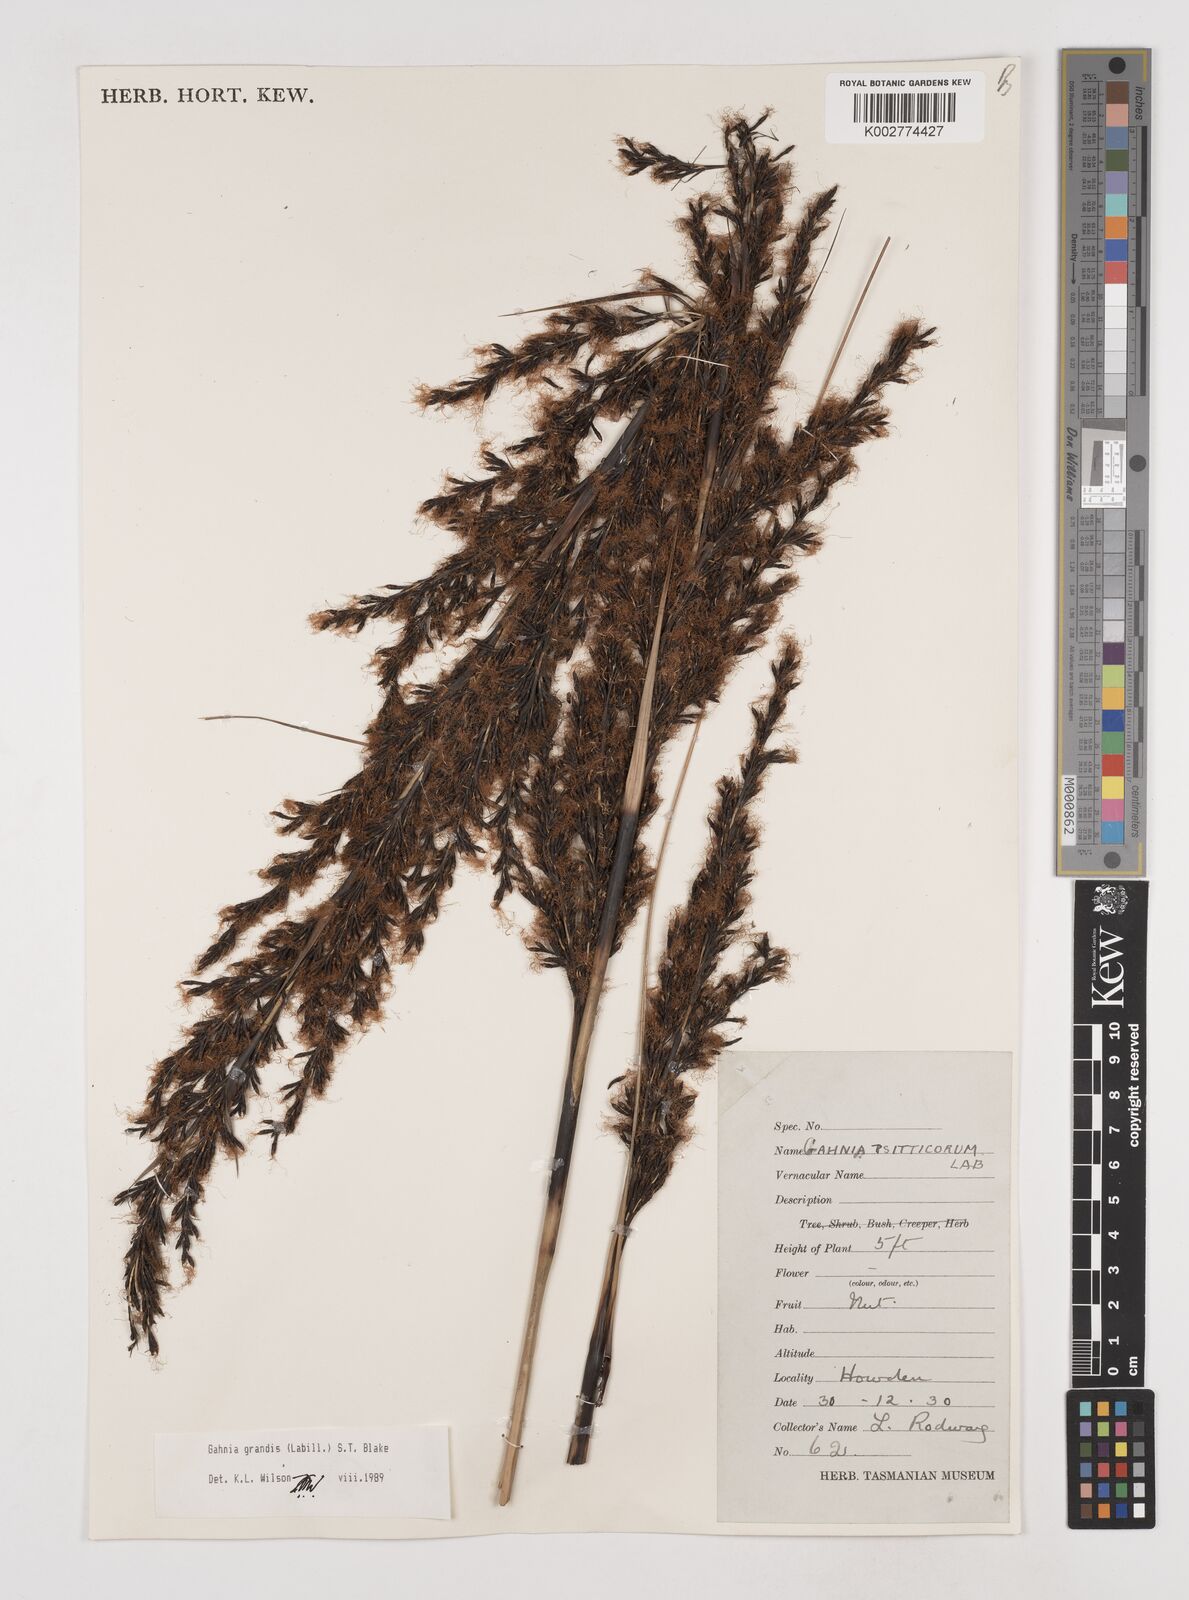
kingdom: Plantae
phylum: Tracheophyta
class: Liliopsida
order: Poales
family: Cyperaceae
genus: Gahnia
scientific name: Gahnia grandis
